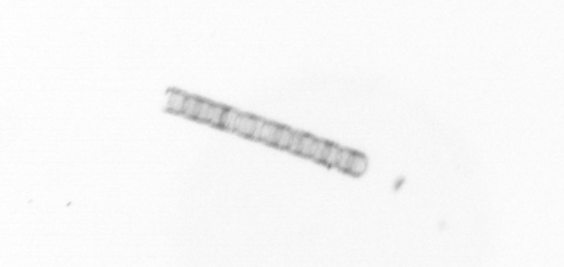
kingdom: Chromista
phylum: Ochrophyta
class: Bacillariophyceae
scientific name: Bacillariophyceae
